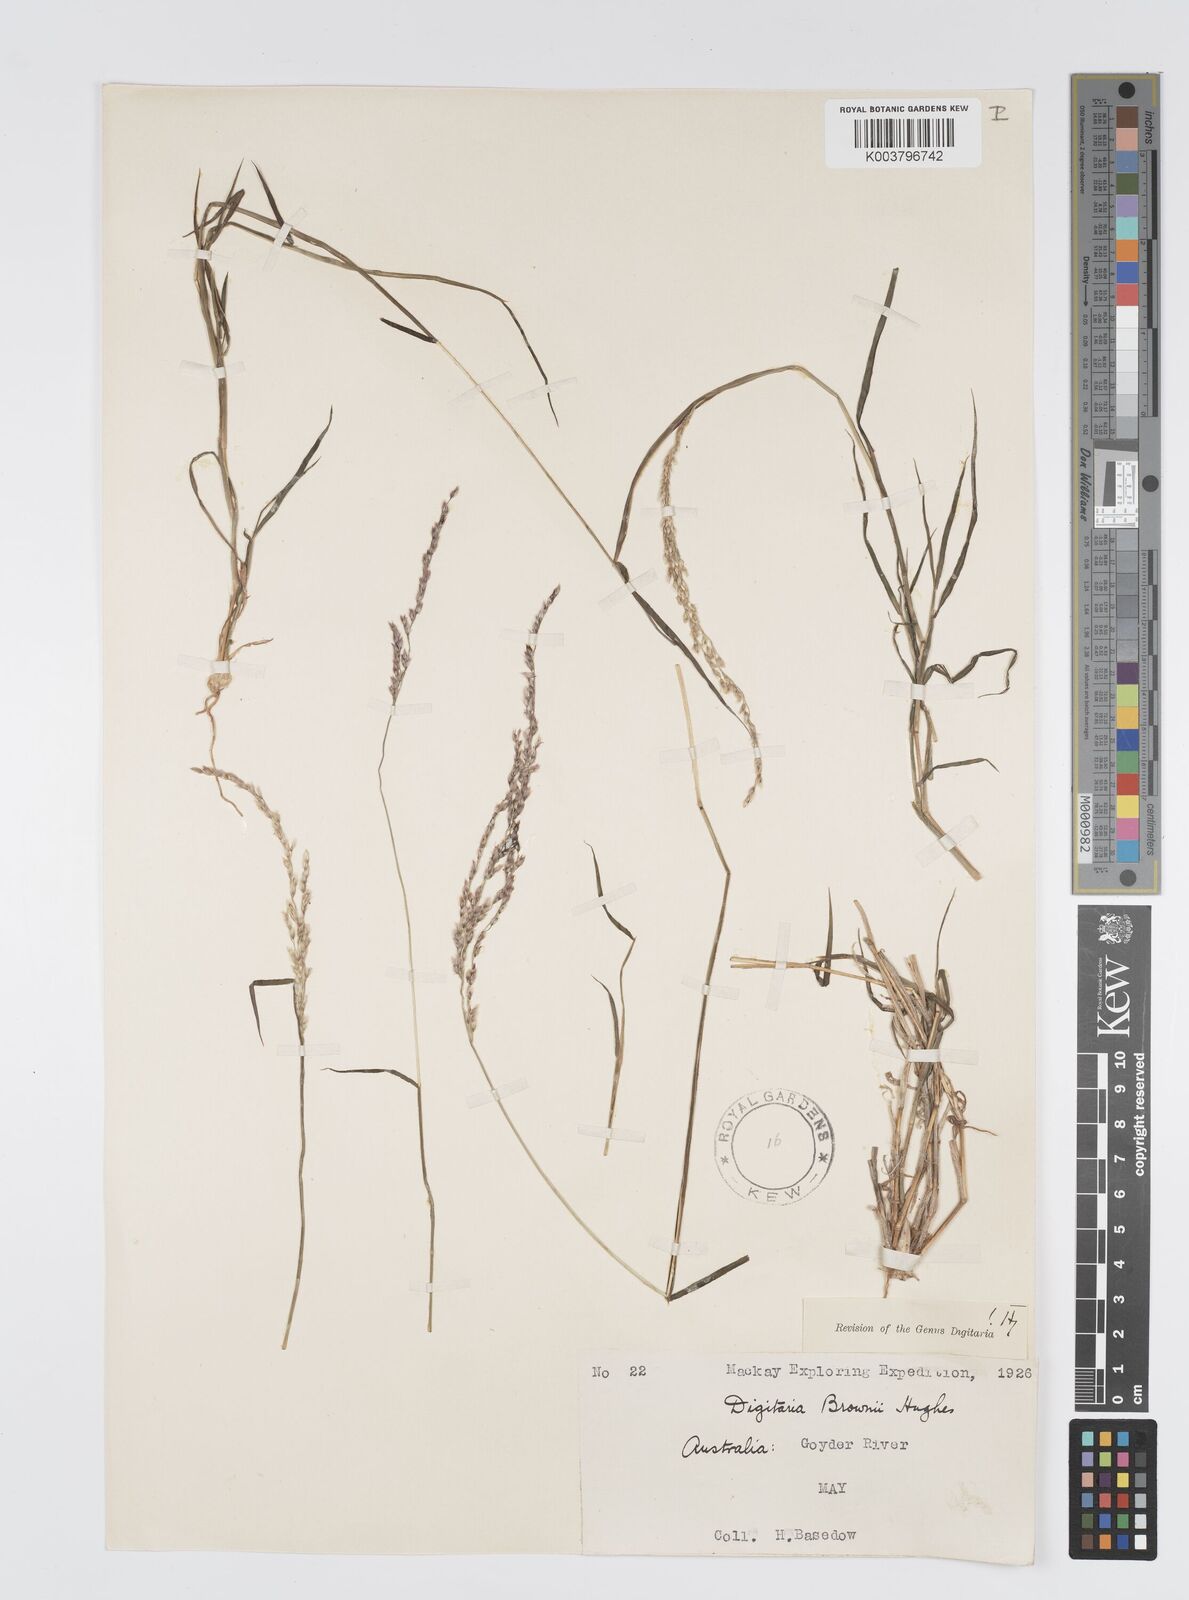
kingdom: Plantae
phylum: Tracheophyta
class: Liliopsida
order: Poales
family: Poaceae
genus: Digitaria
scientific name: Digitaria brownii
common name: Cotton grass
